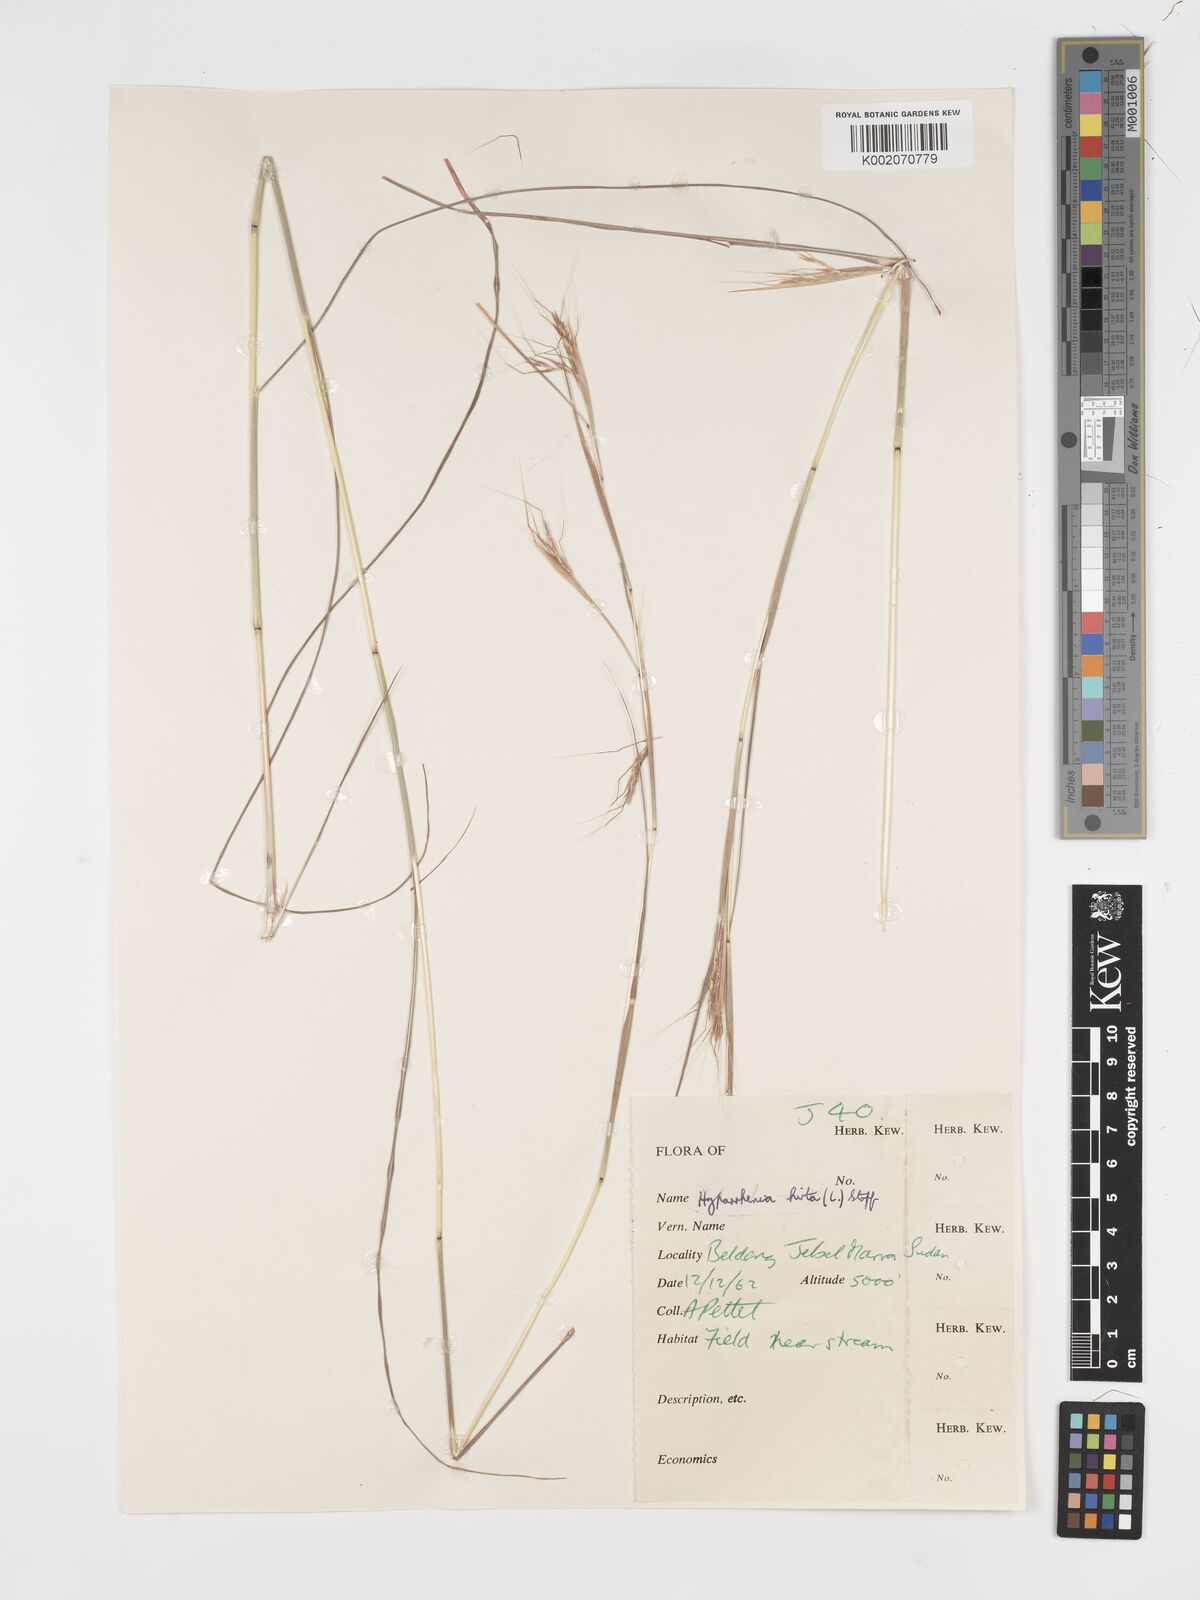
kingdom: Plantae
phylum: Tracheophyta
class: Liliopsida
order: Poales
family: Poaceae
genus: Hyparrhenia
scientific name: Hyparrhenia hirta
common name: Thatching grass
